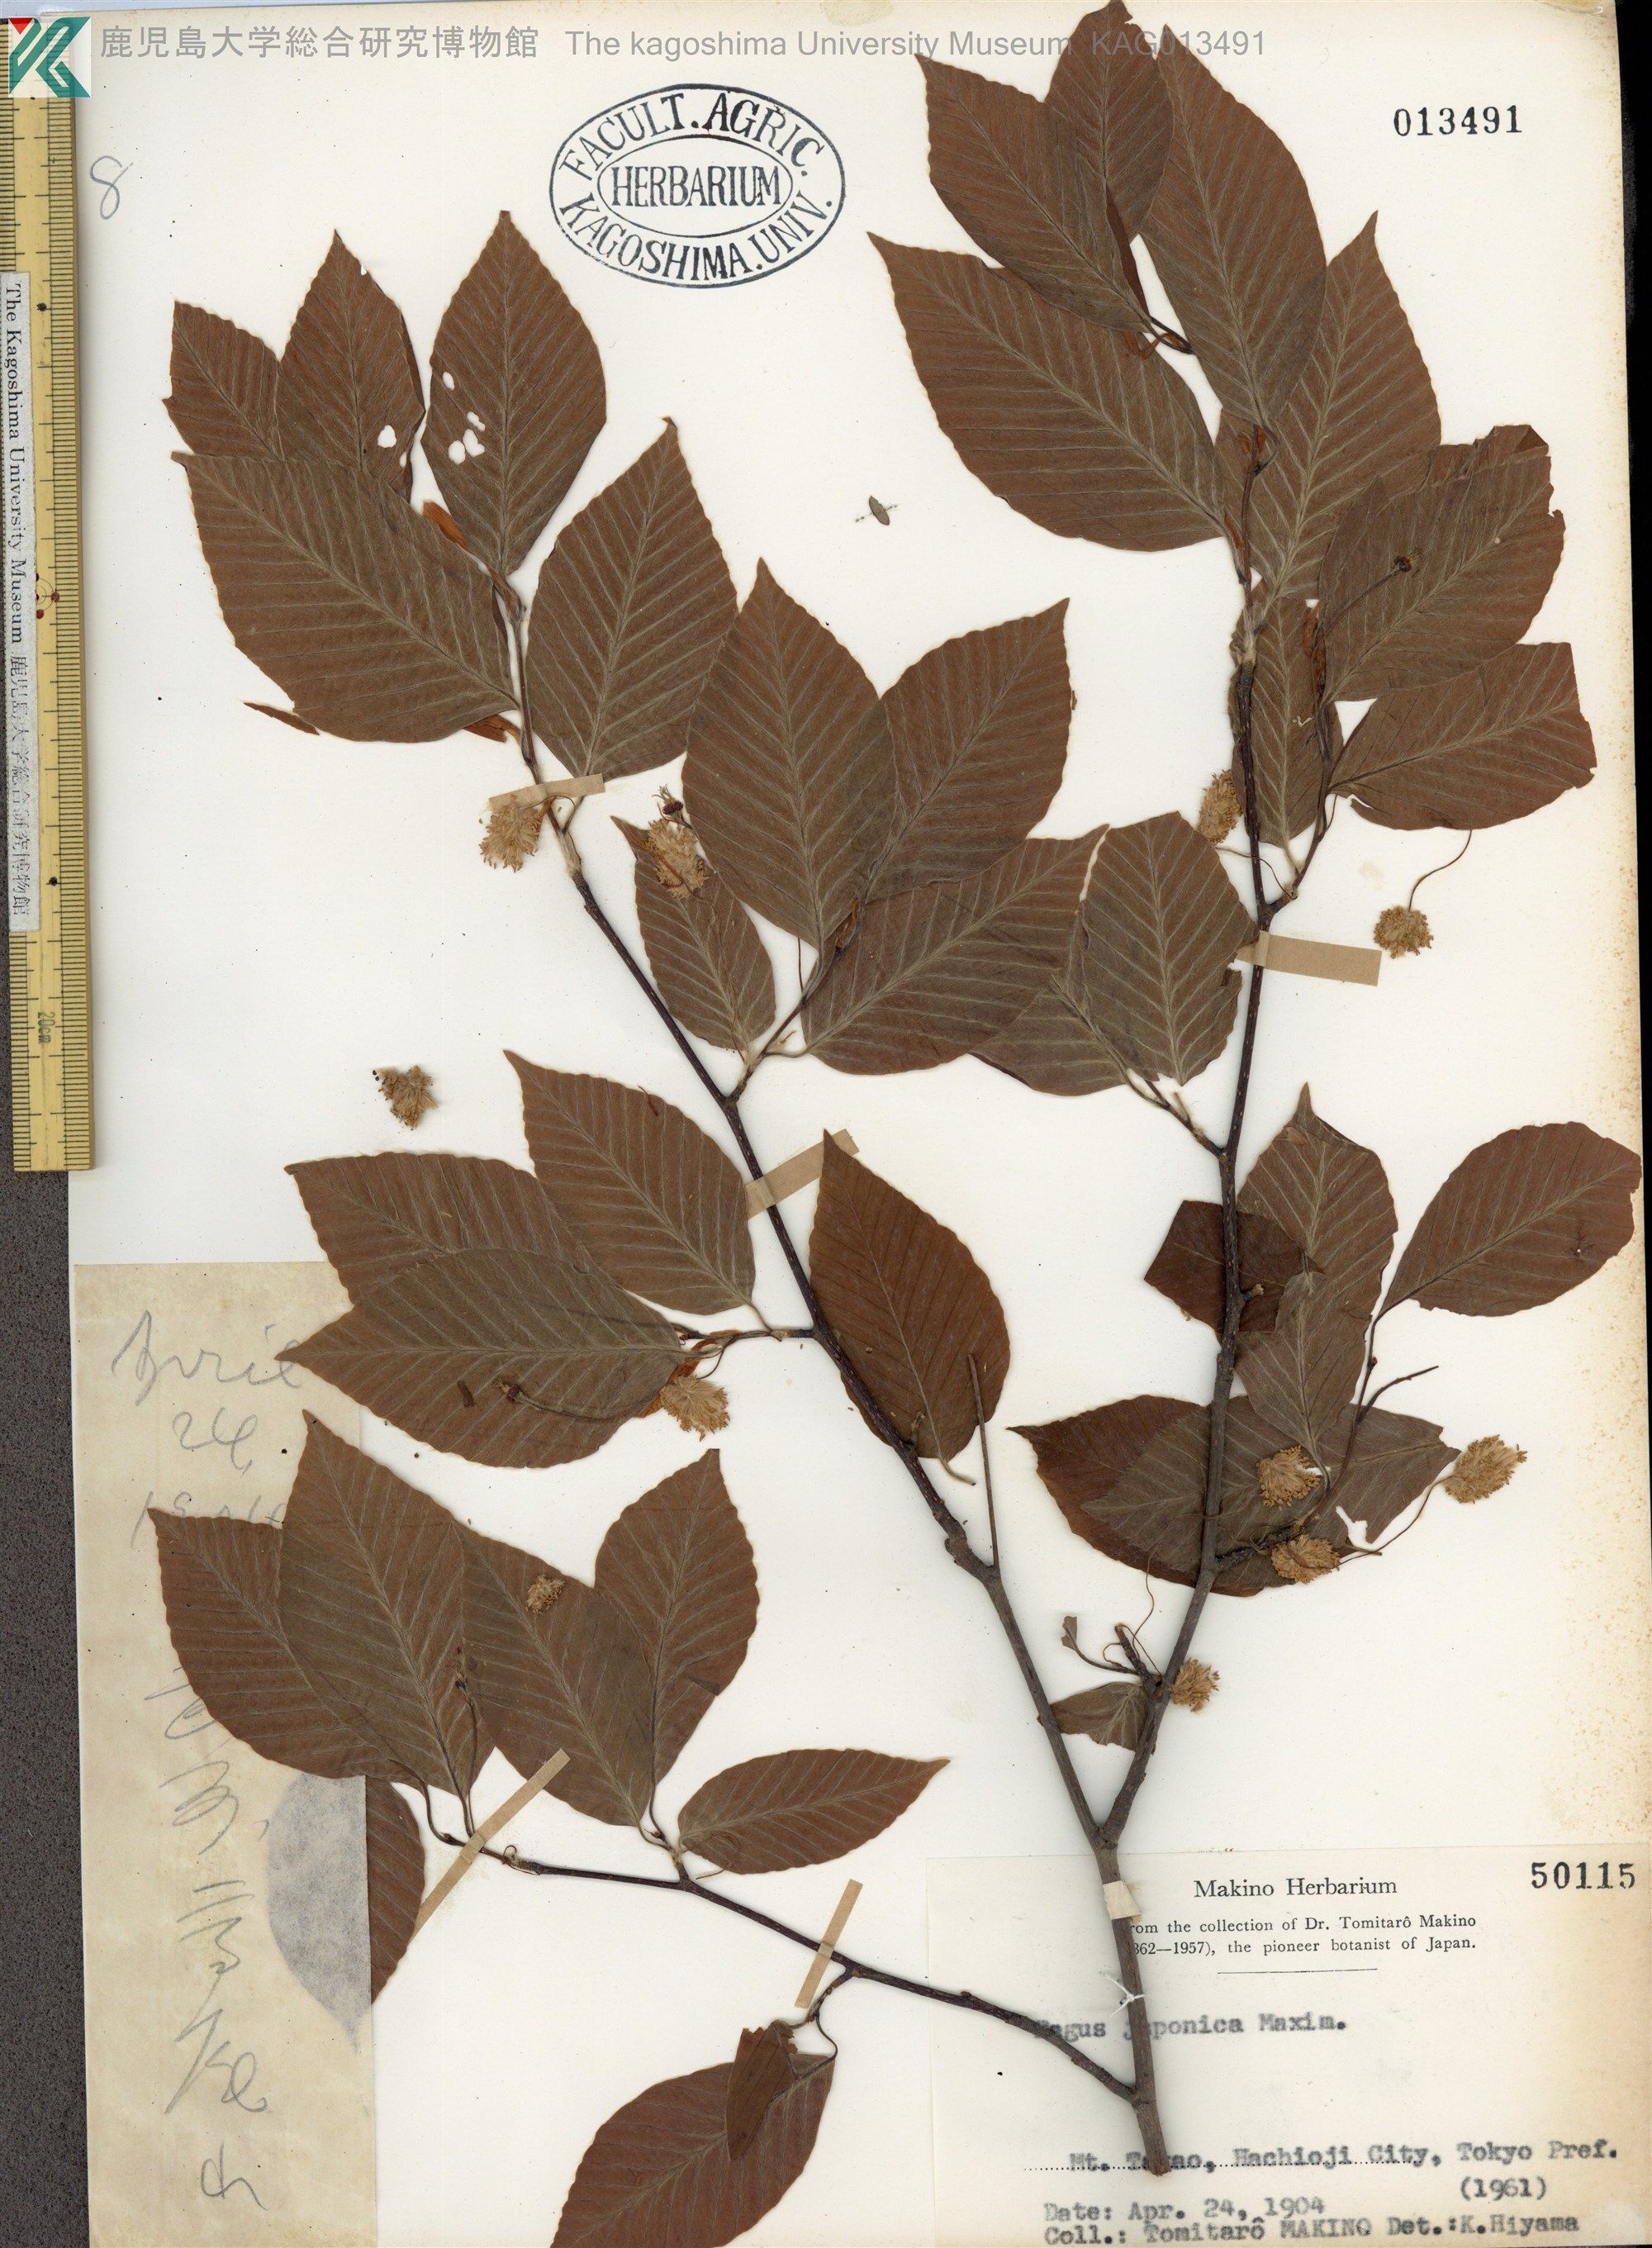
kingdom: Plantae
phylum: Tracheophyta
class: Magnoliopsida
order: Fagales
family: Fagaceae
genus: Fagus
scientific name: Fagus japonica
